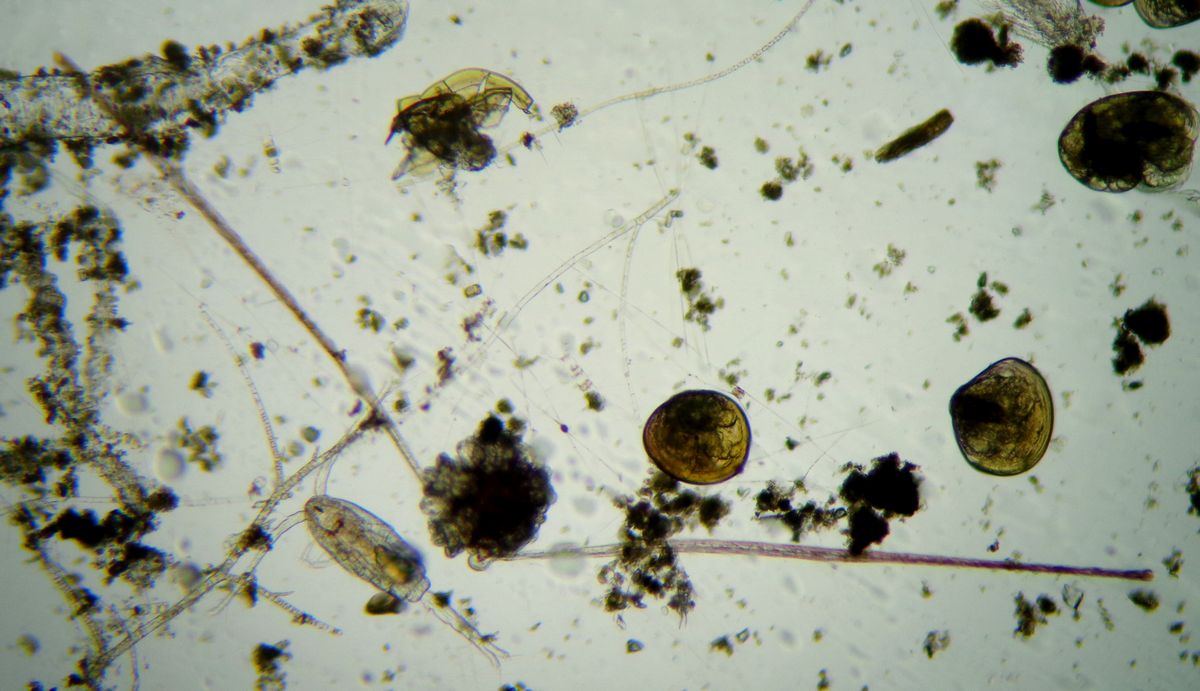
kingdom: Animalia
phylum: Echinodermata
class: Ophiuroidea
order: Amphilepidida
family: Ophiopholidae
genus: Ophiopholis
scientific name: Ophiopholis aculeata
